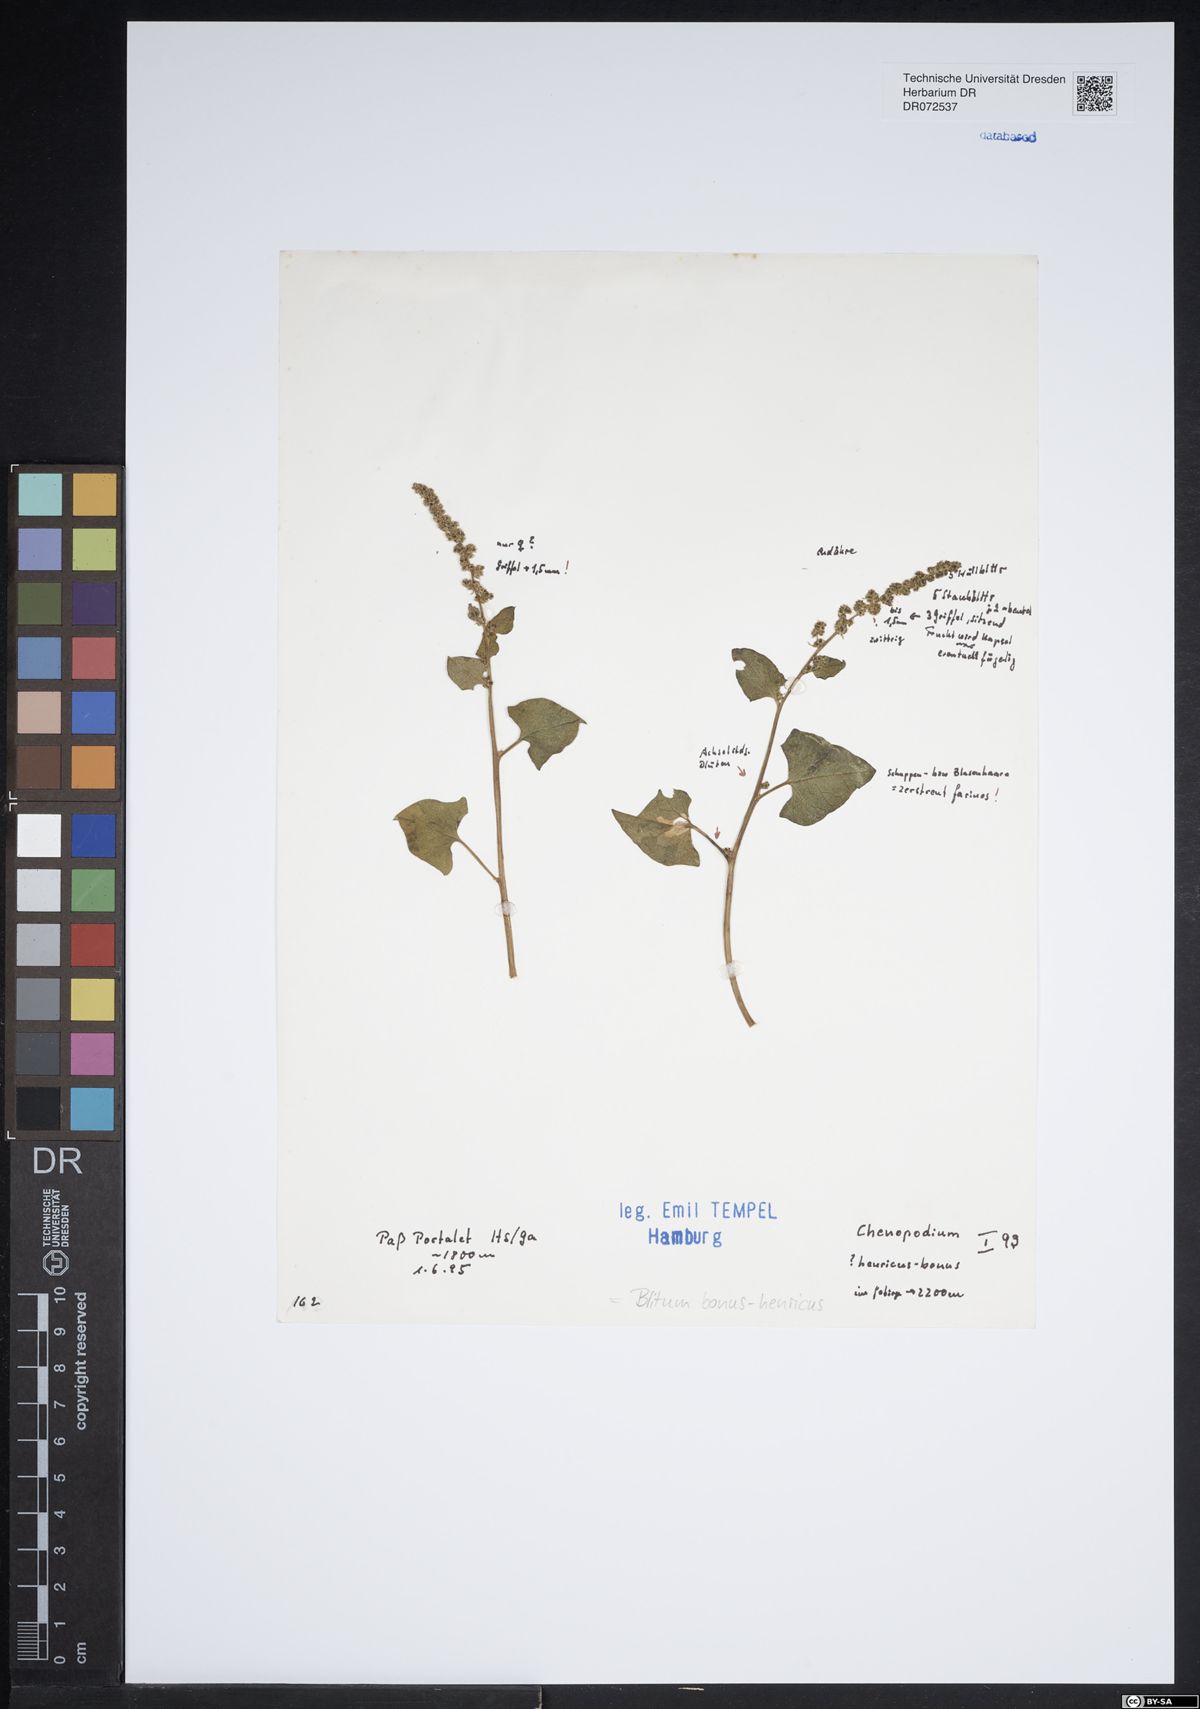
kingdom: Plantae
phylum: Tracheophyta
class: Magnoliopsida
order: Caryophyllales
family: Amaranthaceae
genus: Blitum
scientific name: Blitum bonus-henricus
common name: Good king henry
